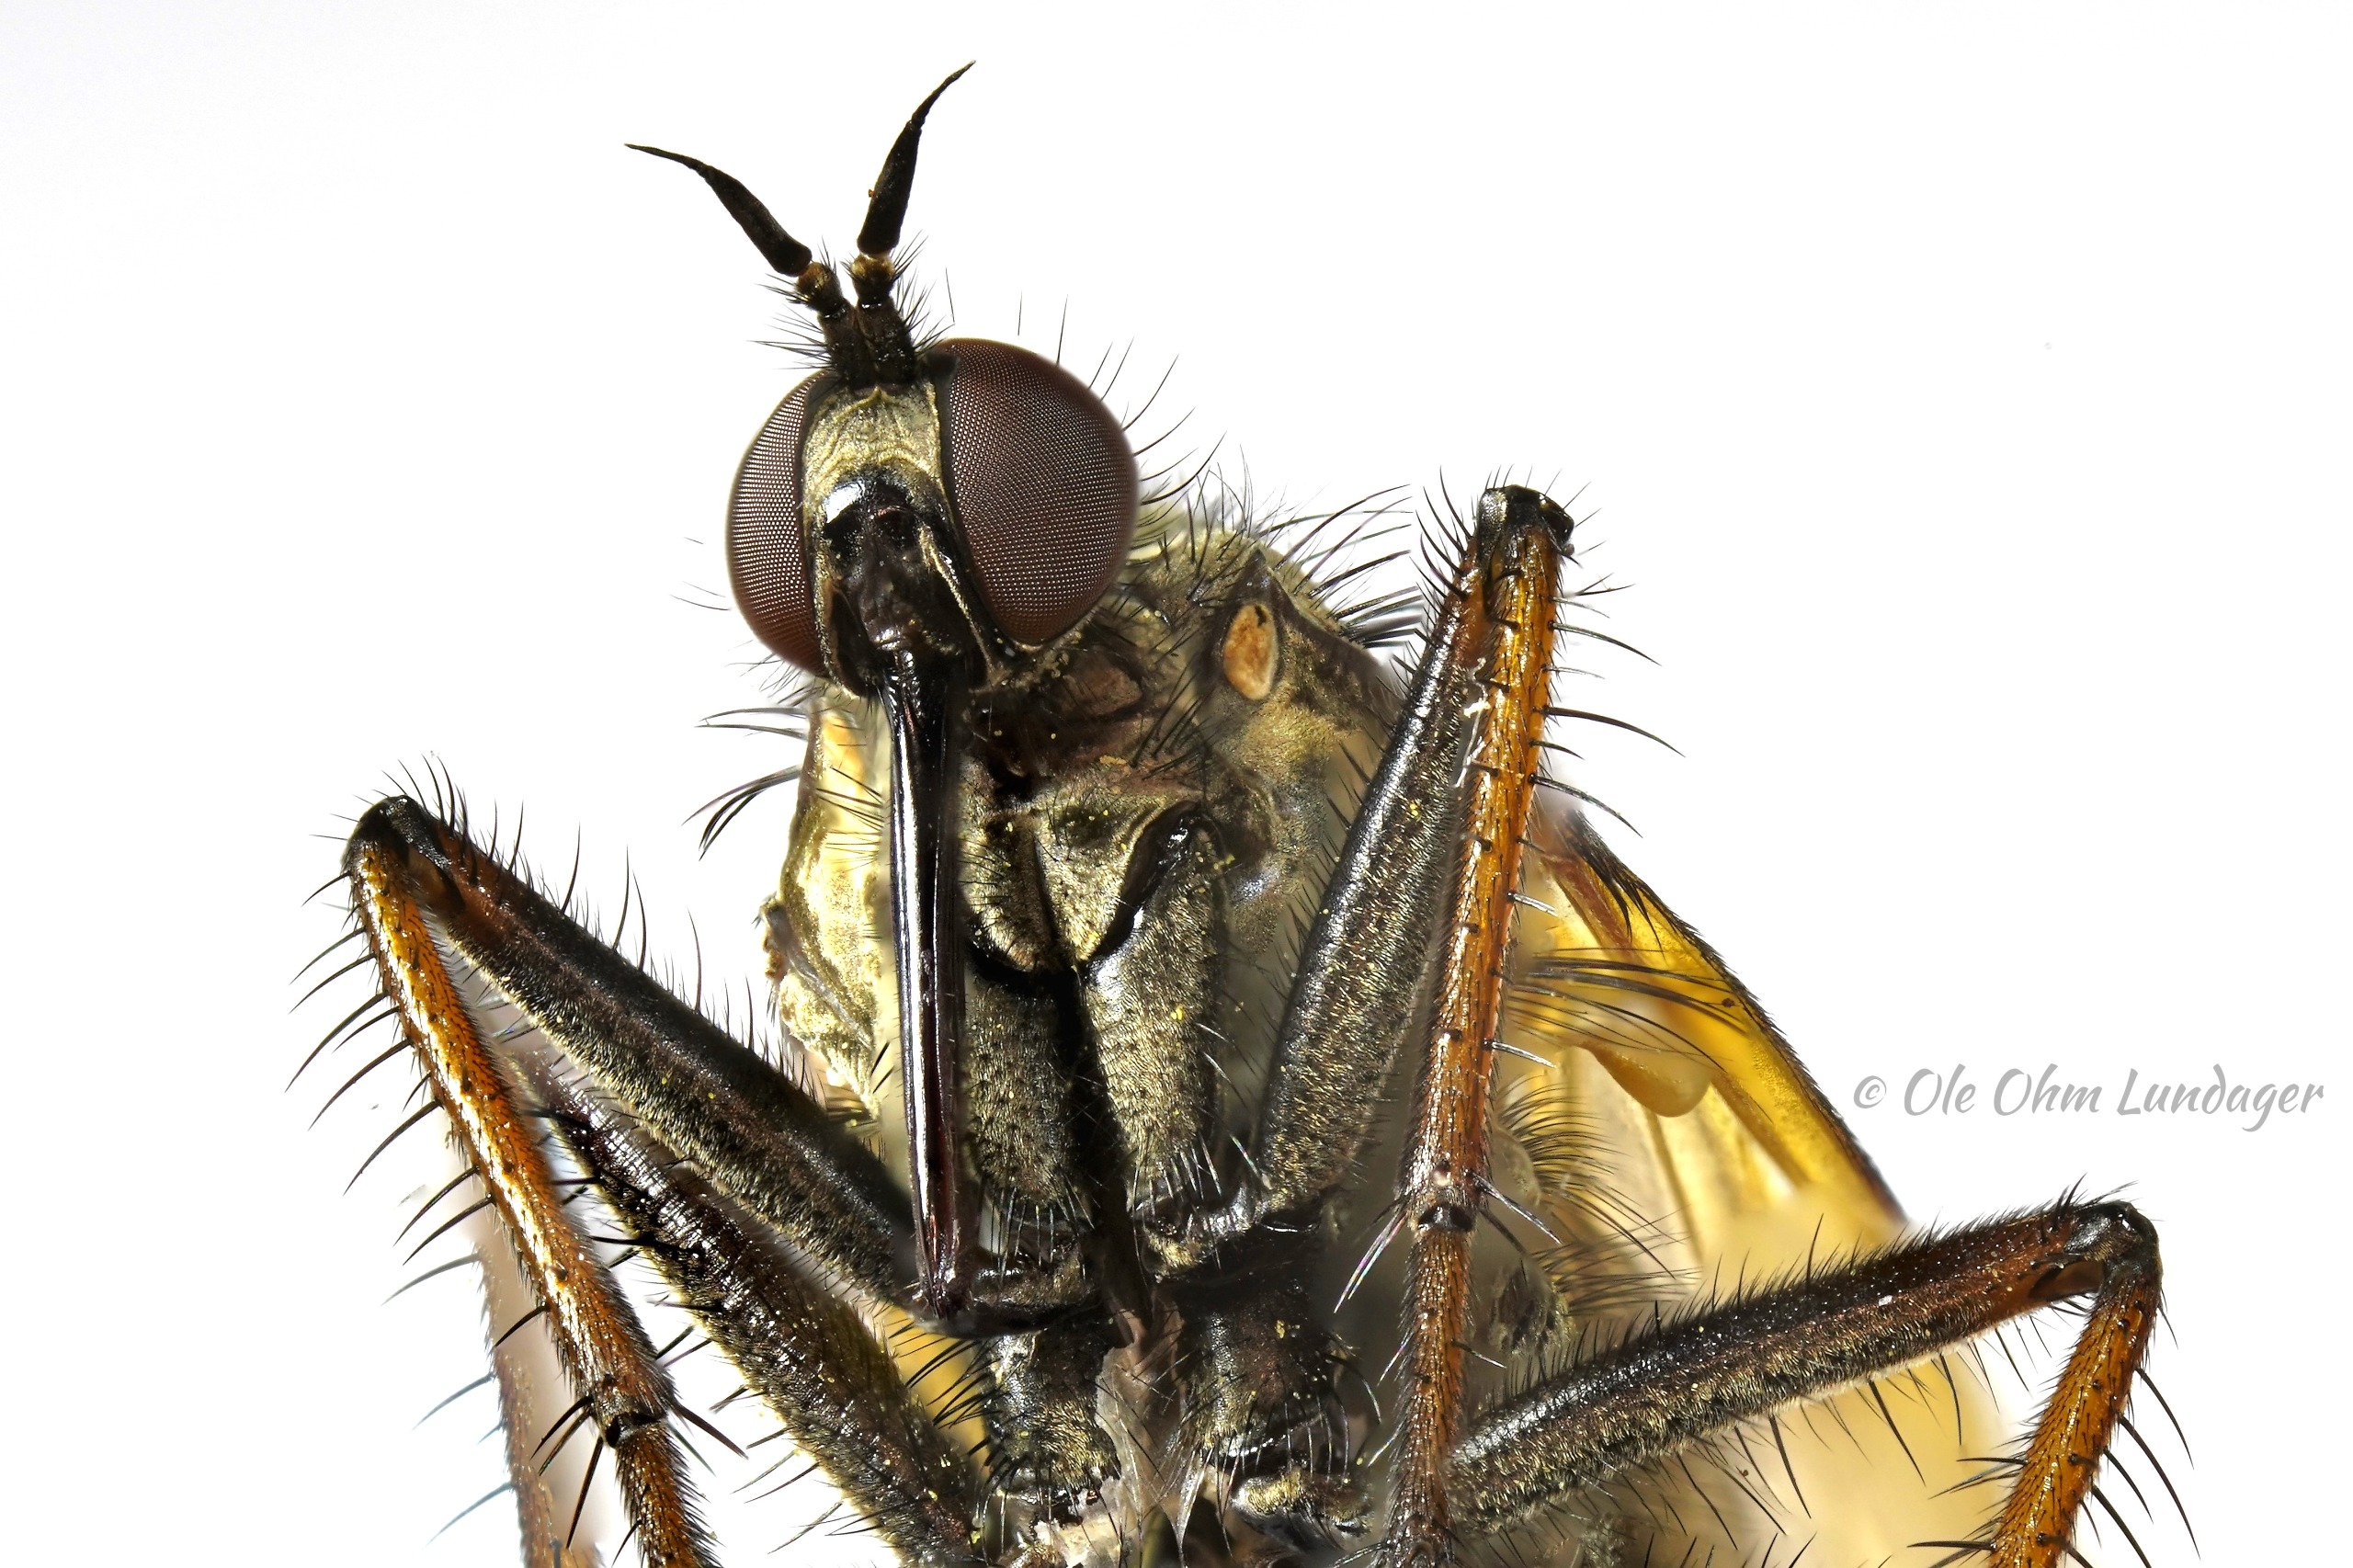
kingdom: Animalia
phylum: Arthropoda
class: Insecta
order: Diptera
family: Empididae
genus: Empis
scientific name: Empis tessellata
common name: Stor danseflue
